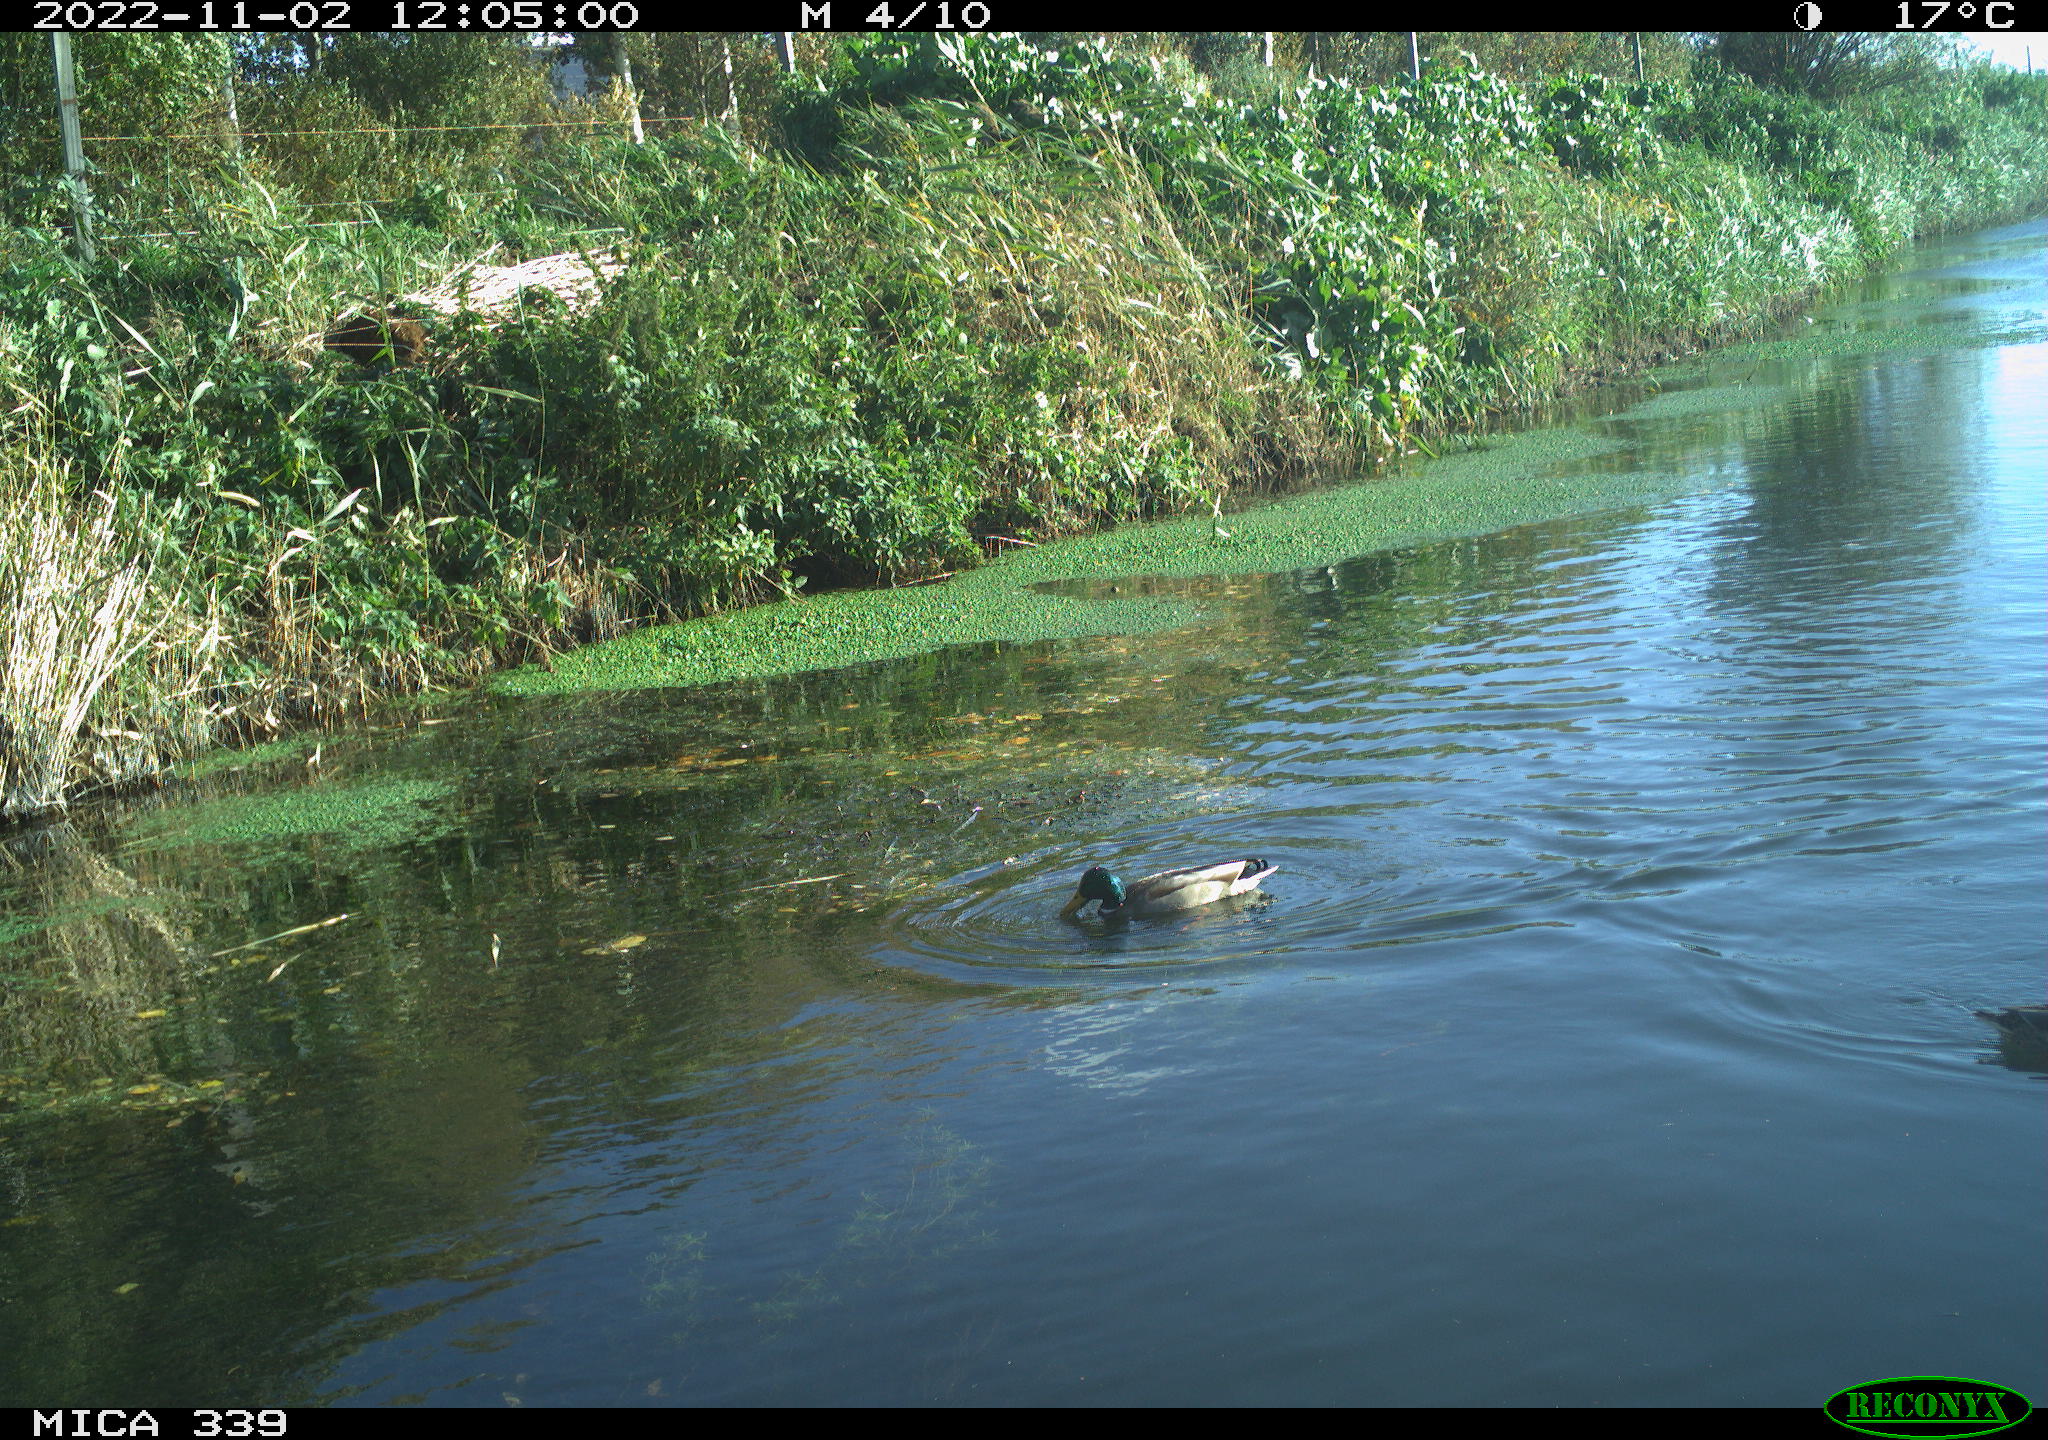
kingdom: Animalia
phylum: Chordata
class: Aves
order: Anseriformes
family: Anatidae
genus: Anas
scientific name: Anas platyrhynchos
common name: Mallard
